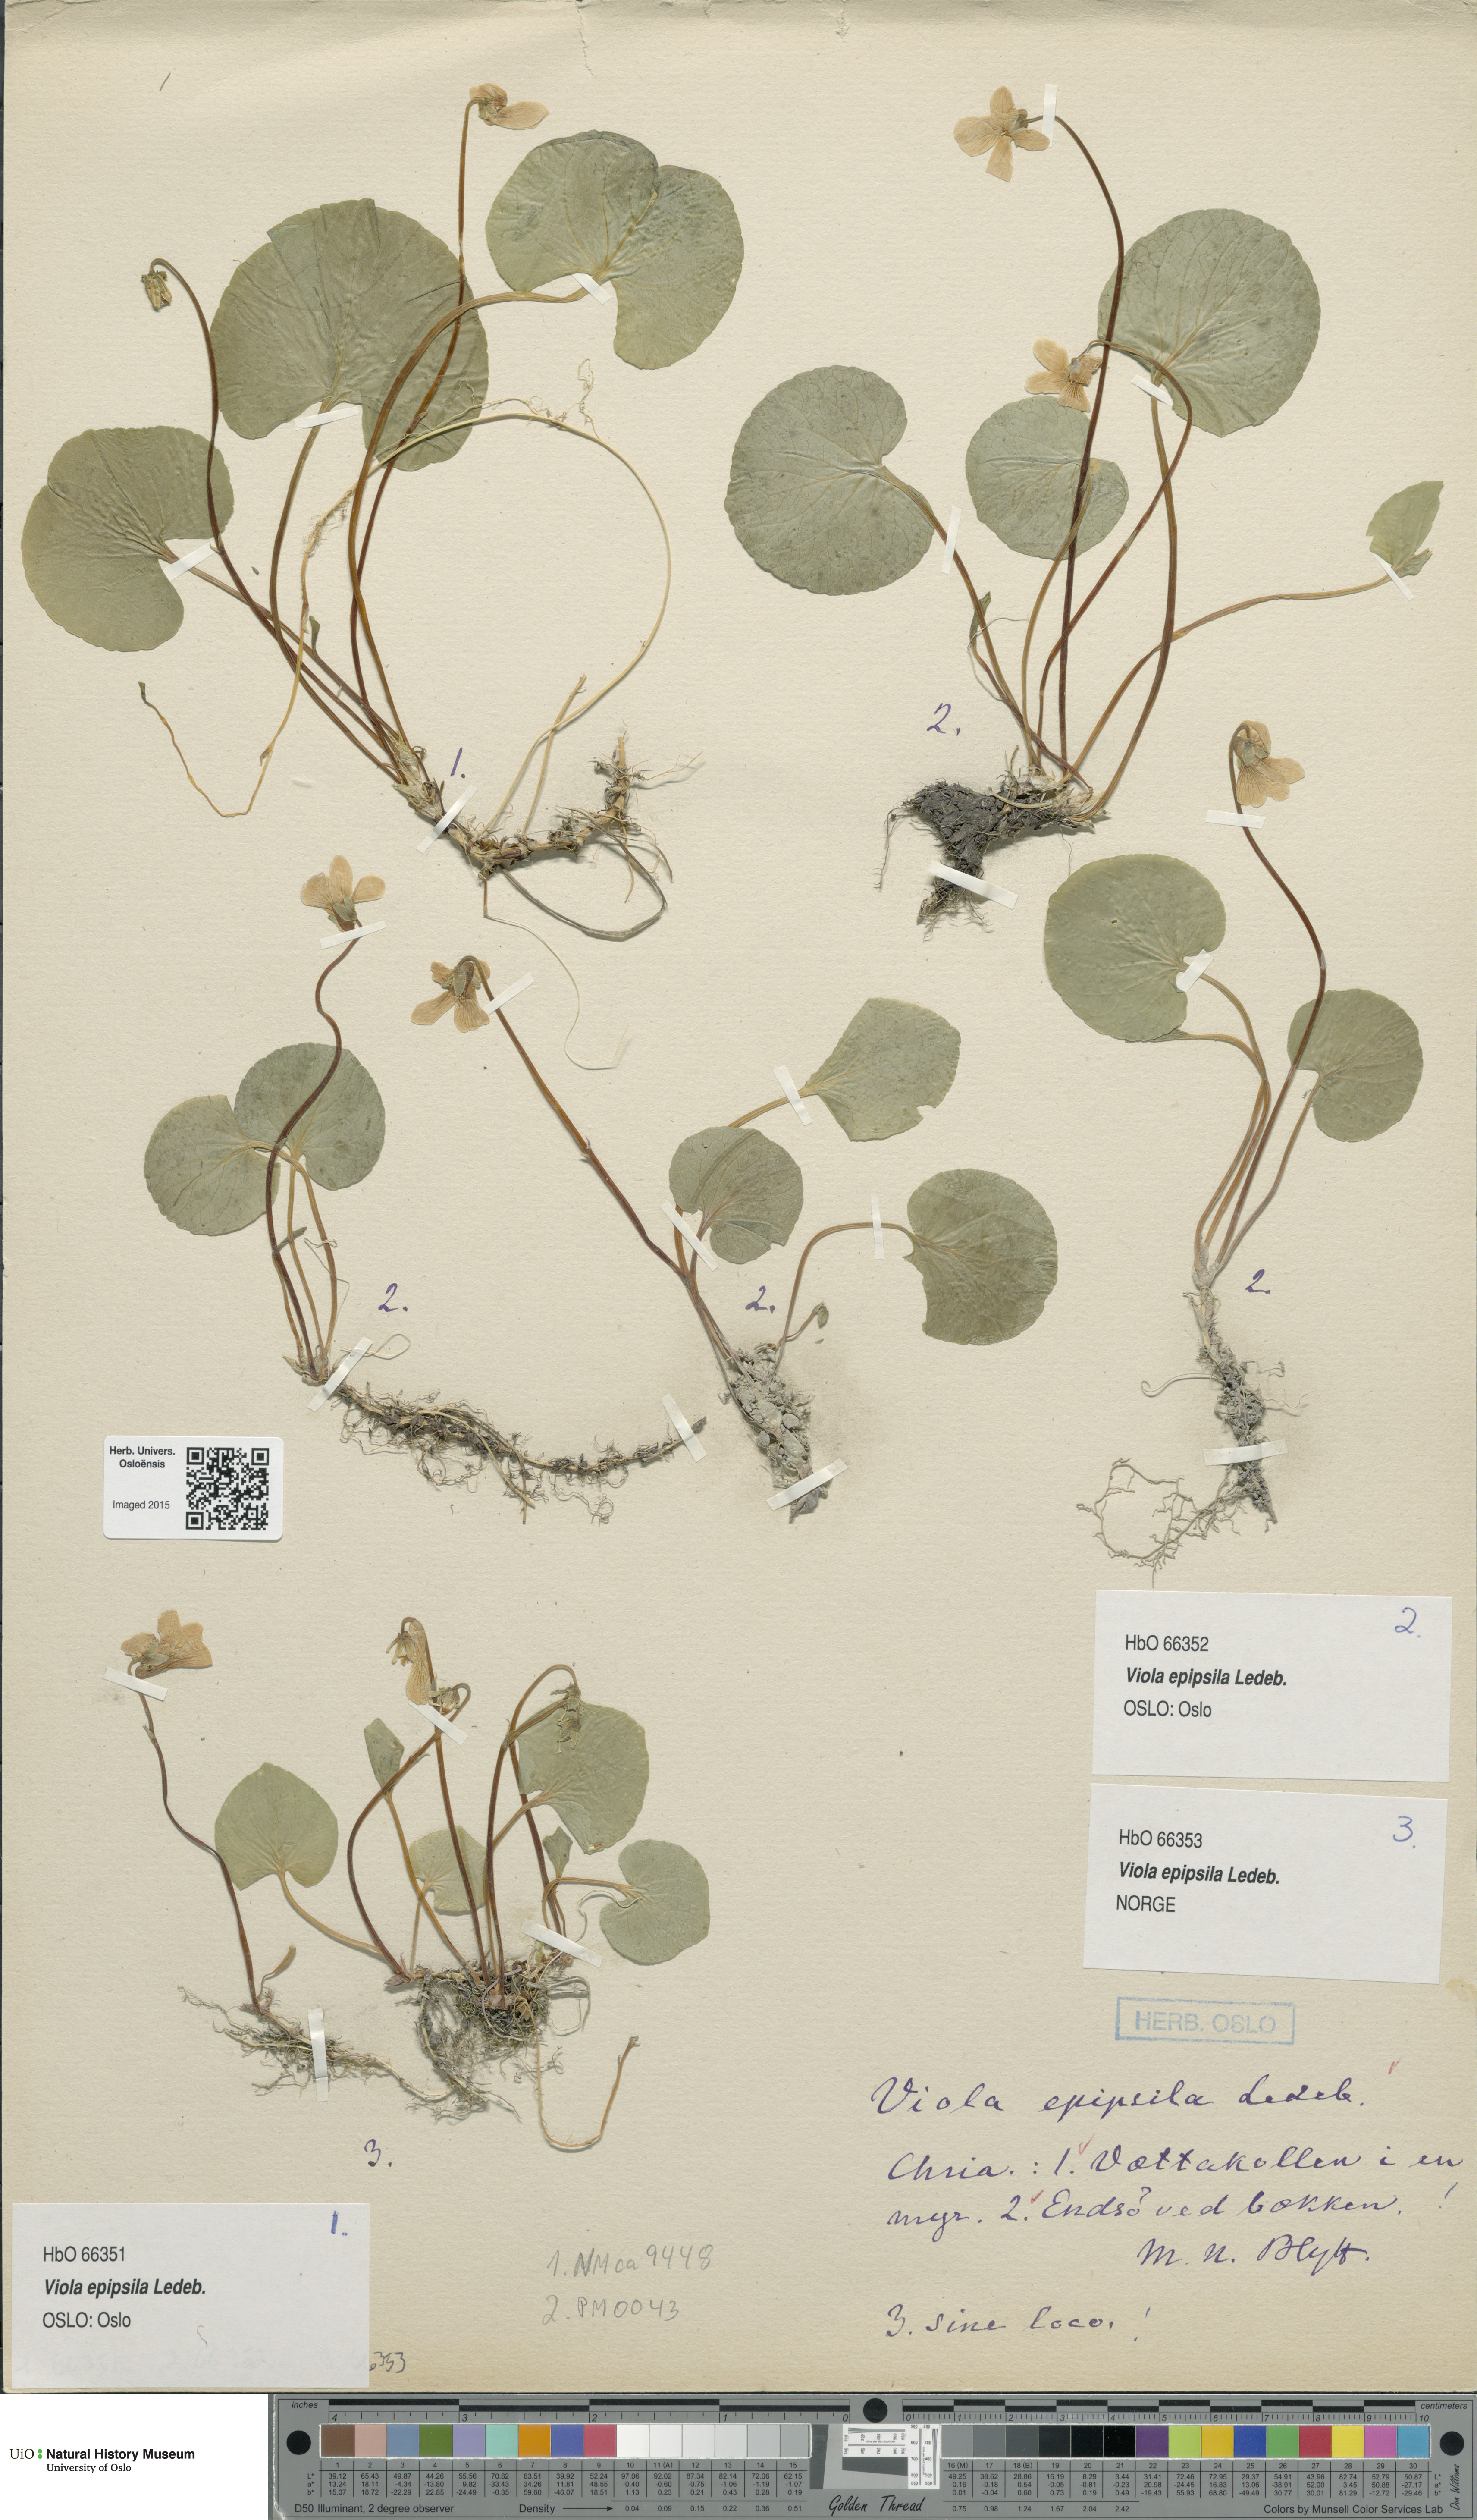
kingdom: Plantae
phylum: Tracheophyta
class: Magnoliopsida
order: Malpighiales
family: Violaceae
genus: Viola
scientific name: Viola epipsila
